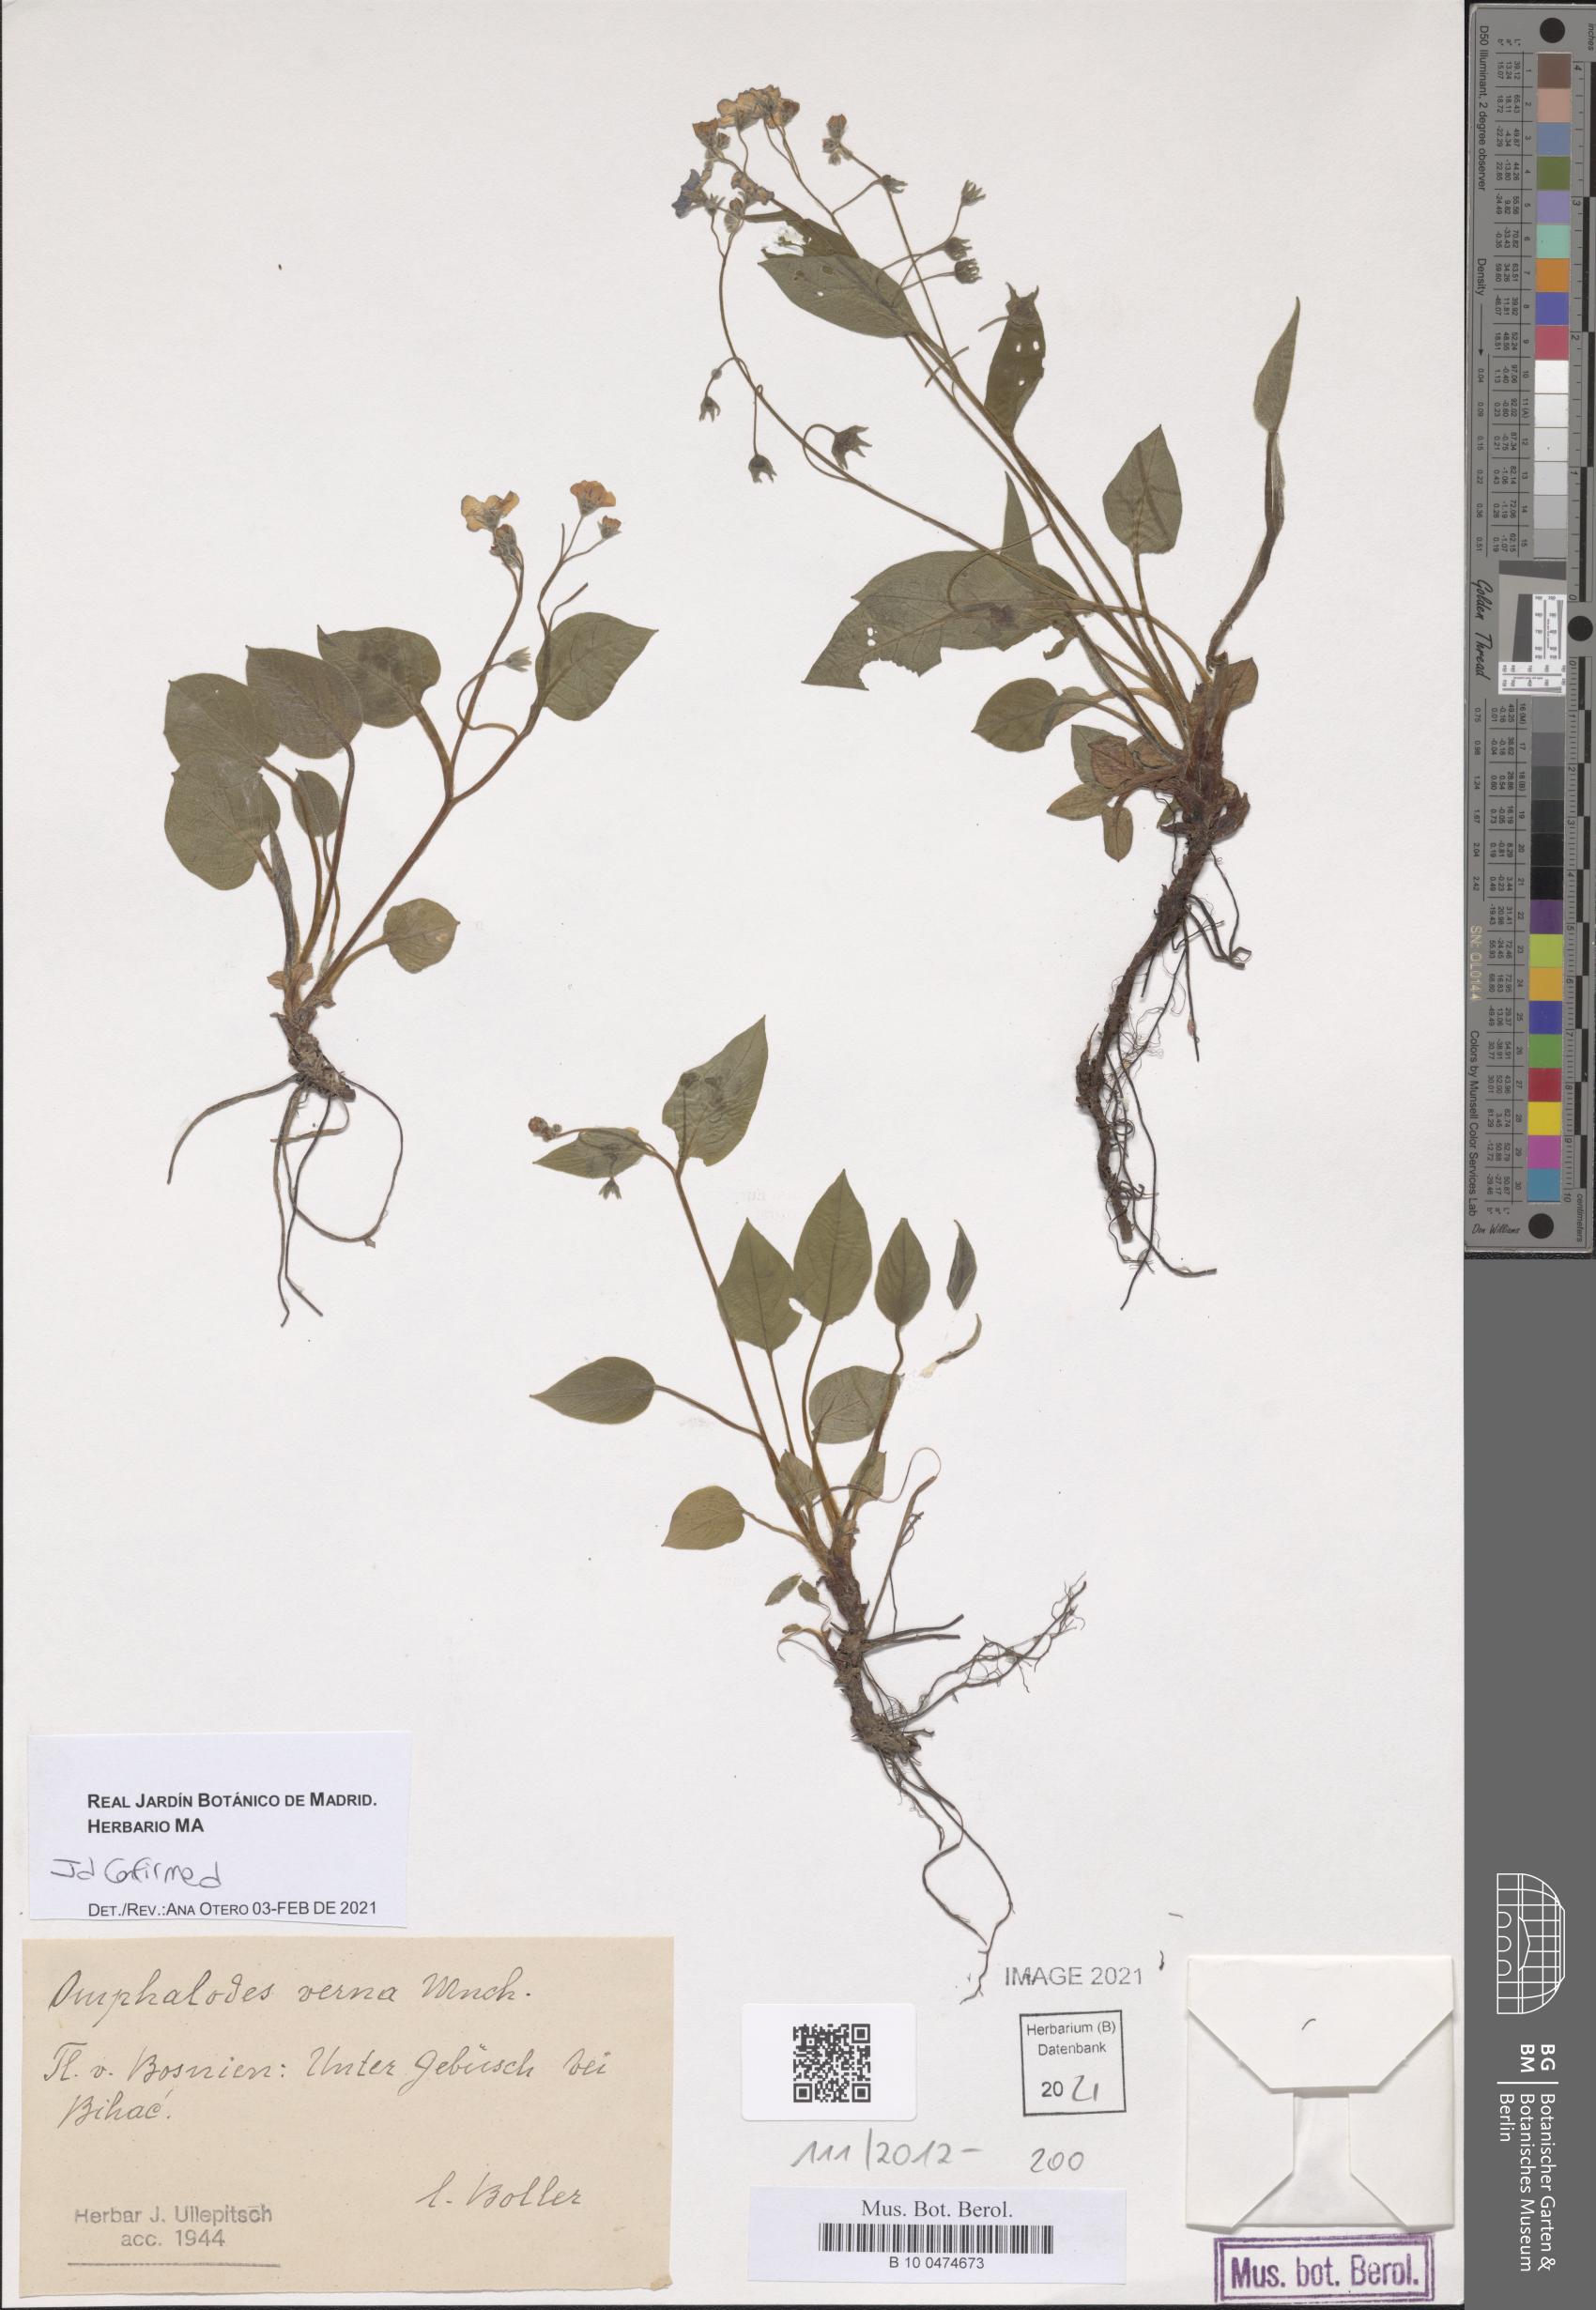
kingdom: Plantae
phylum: Tracheophyta
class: Magnoliopsida
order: Boraginales
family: Boraginaceae
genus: Omphalodes
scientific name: Omphalodes verna
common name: Blue-eyed-mary
